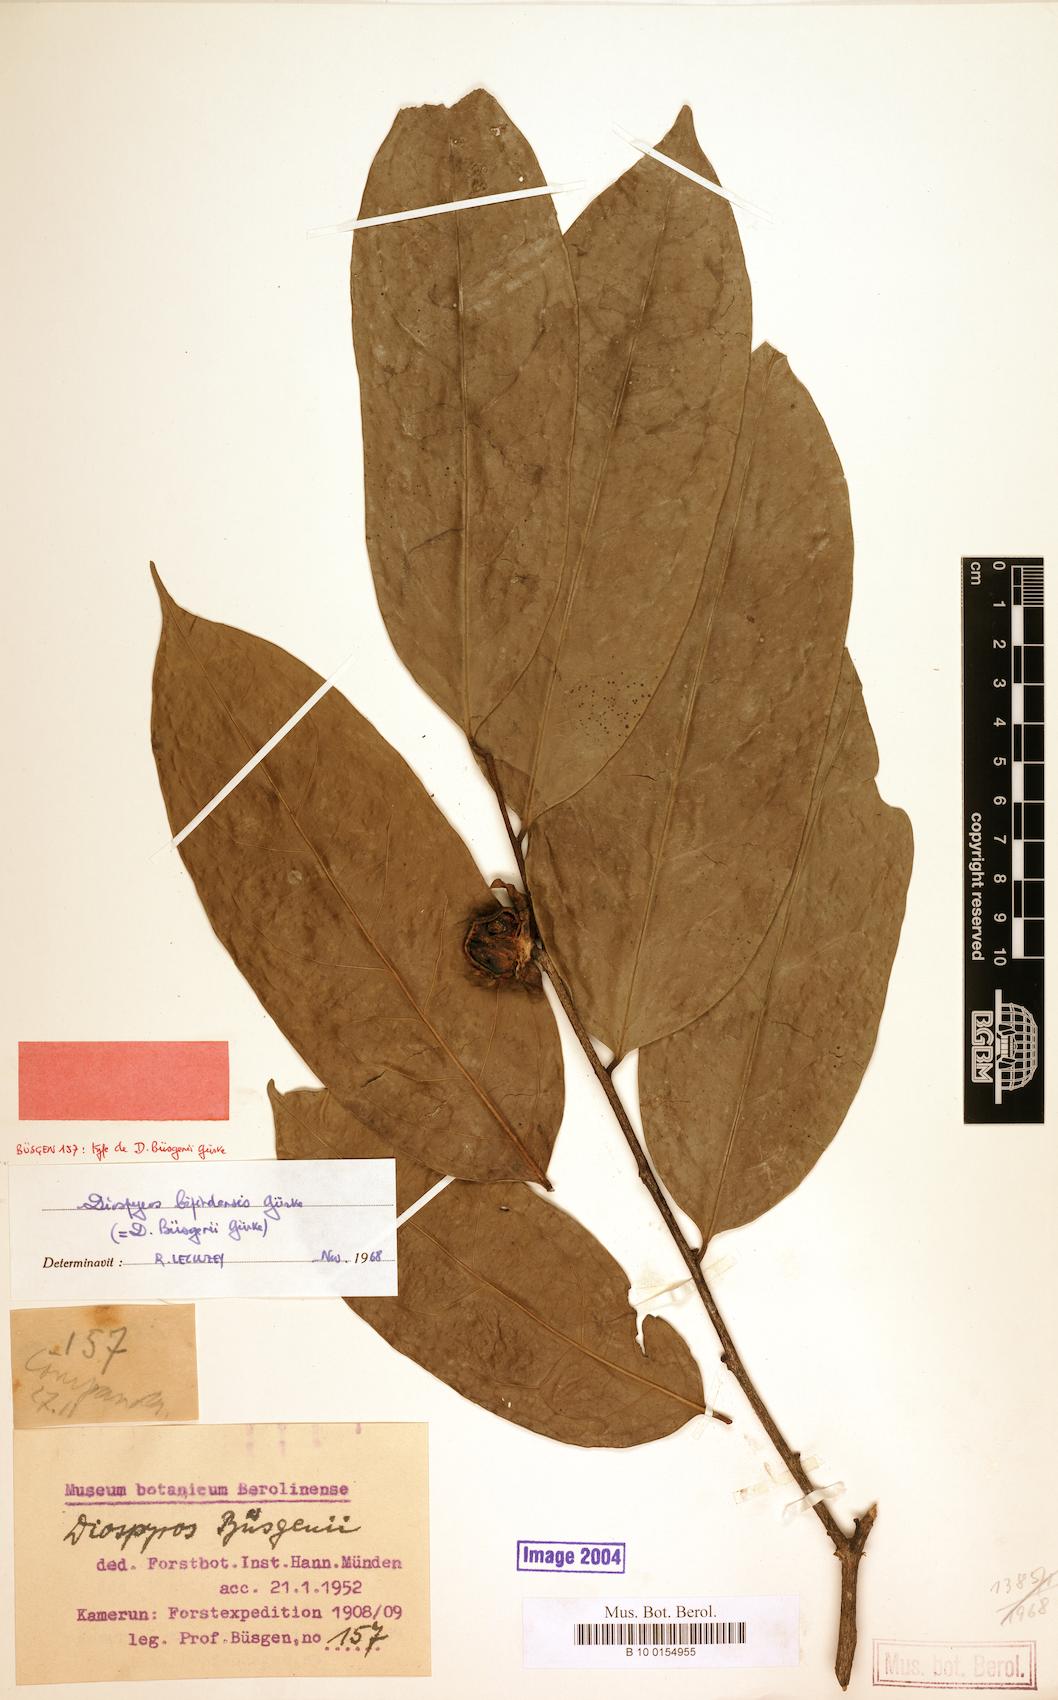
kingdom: Plantae
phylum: Tracheophyta
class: Magnoliopsida
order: Ericales
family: Ebenaceae
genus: Diospyros
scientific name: Diospyros bipindensis
